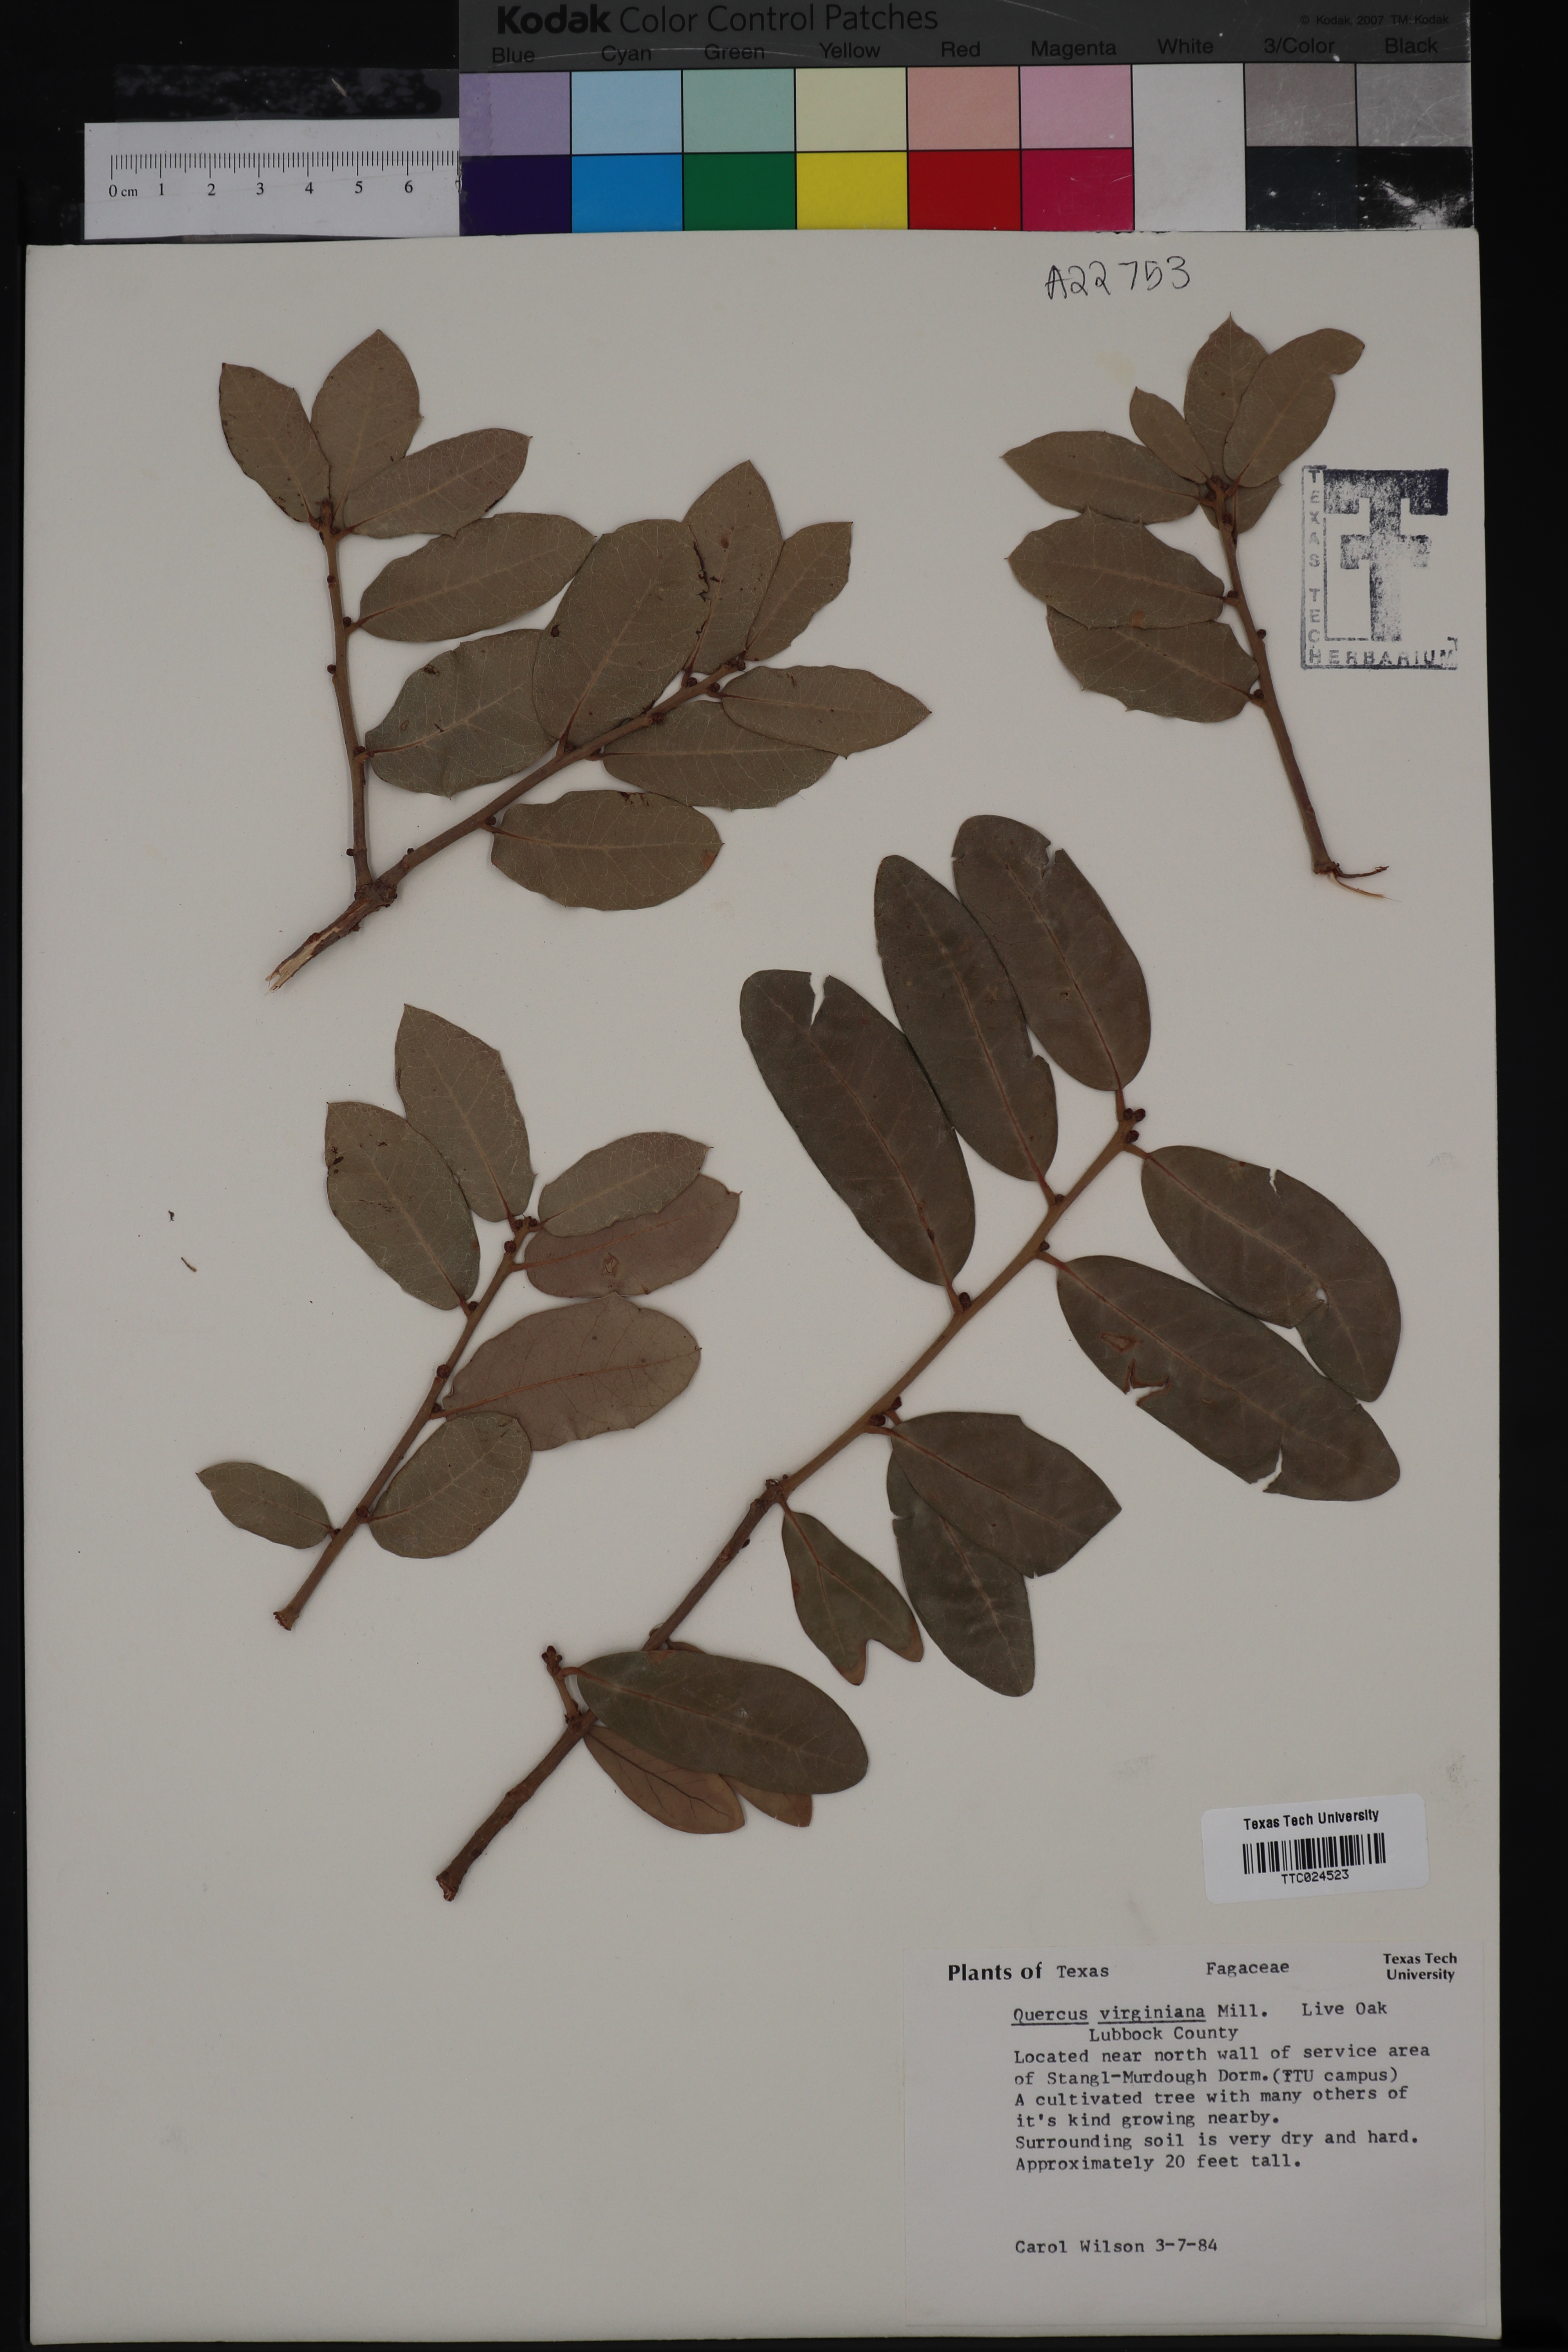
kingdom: Plantae
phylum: Tracheophyta
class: Magnoliopsida
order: Fagales
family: Fagaceae
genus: Quercus
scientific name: Quercus virginiana
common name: Southern live oak
